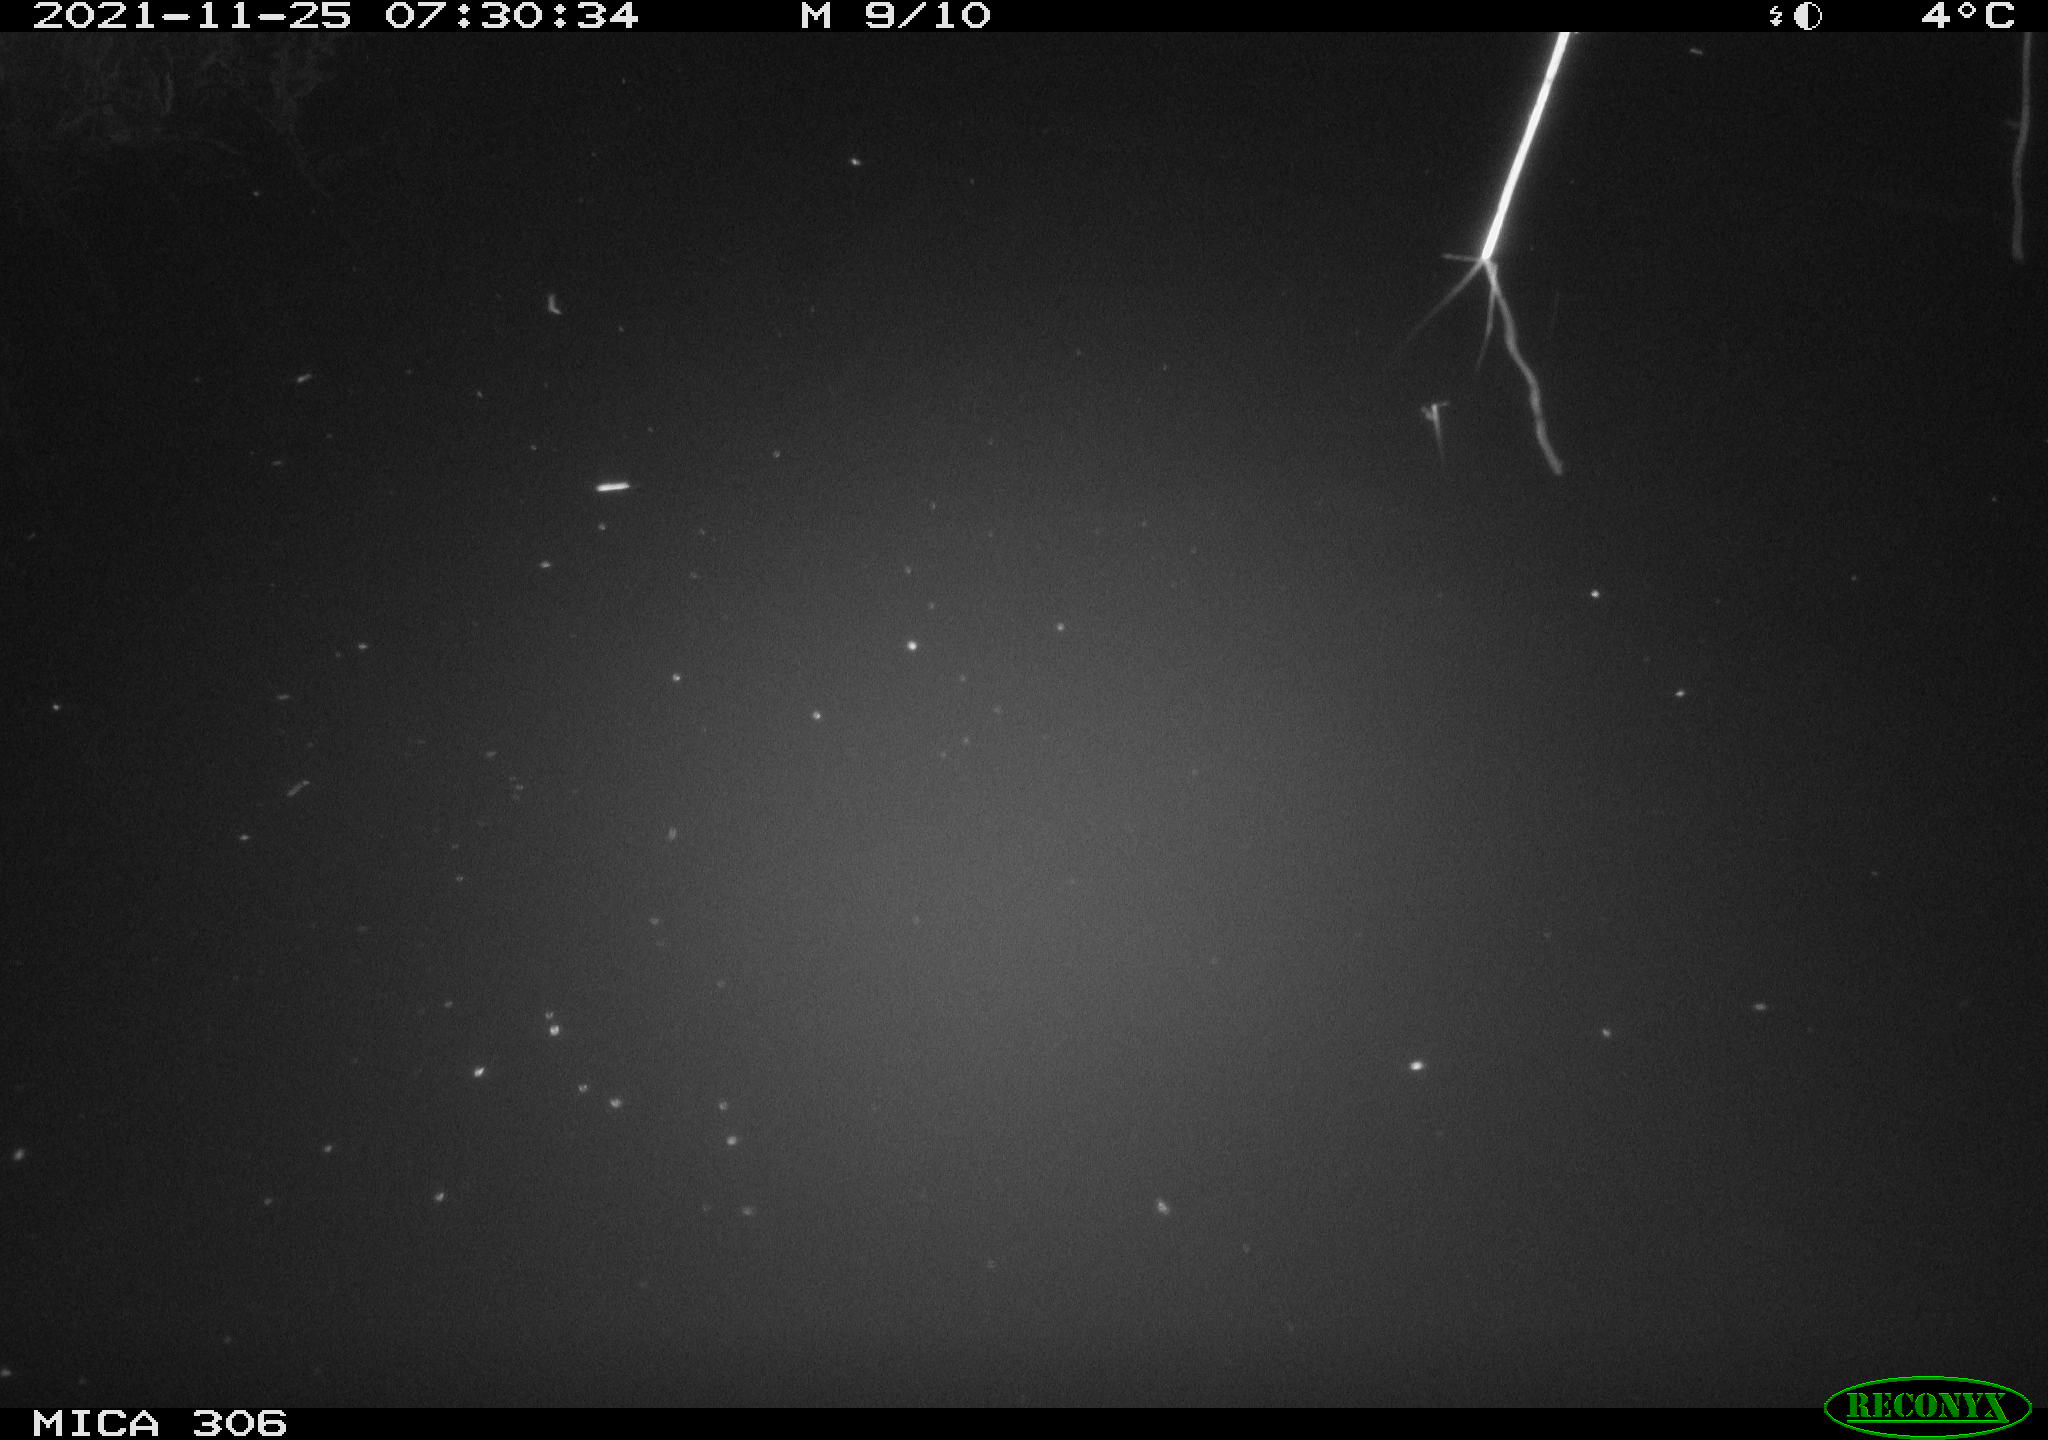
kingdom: Animalia
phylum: Chordata
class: Mammalia
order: Rodentia
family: Muridae
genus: Rattus
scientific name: Rattus norvegicus
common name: Brown rat
